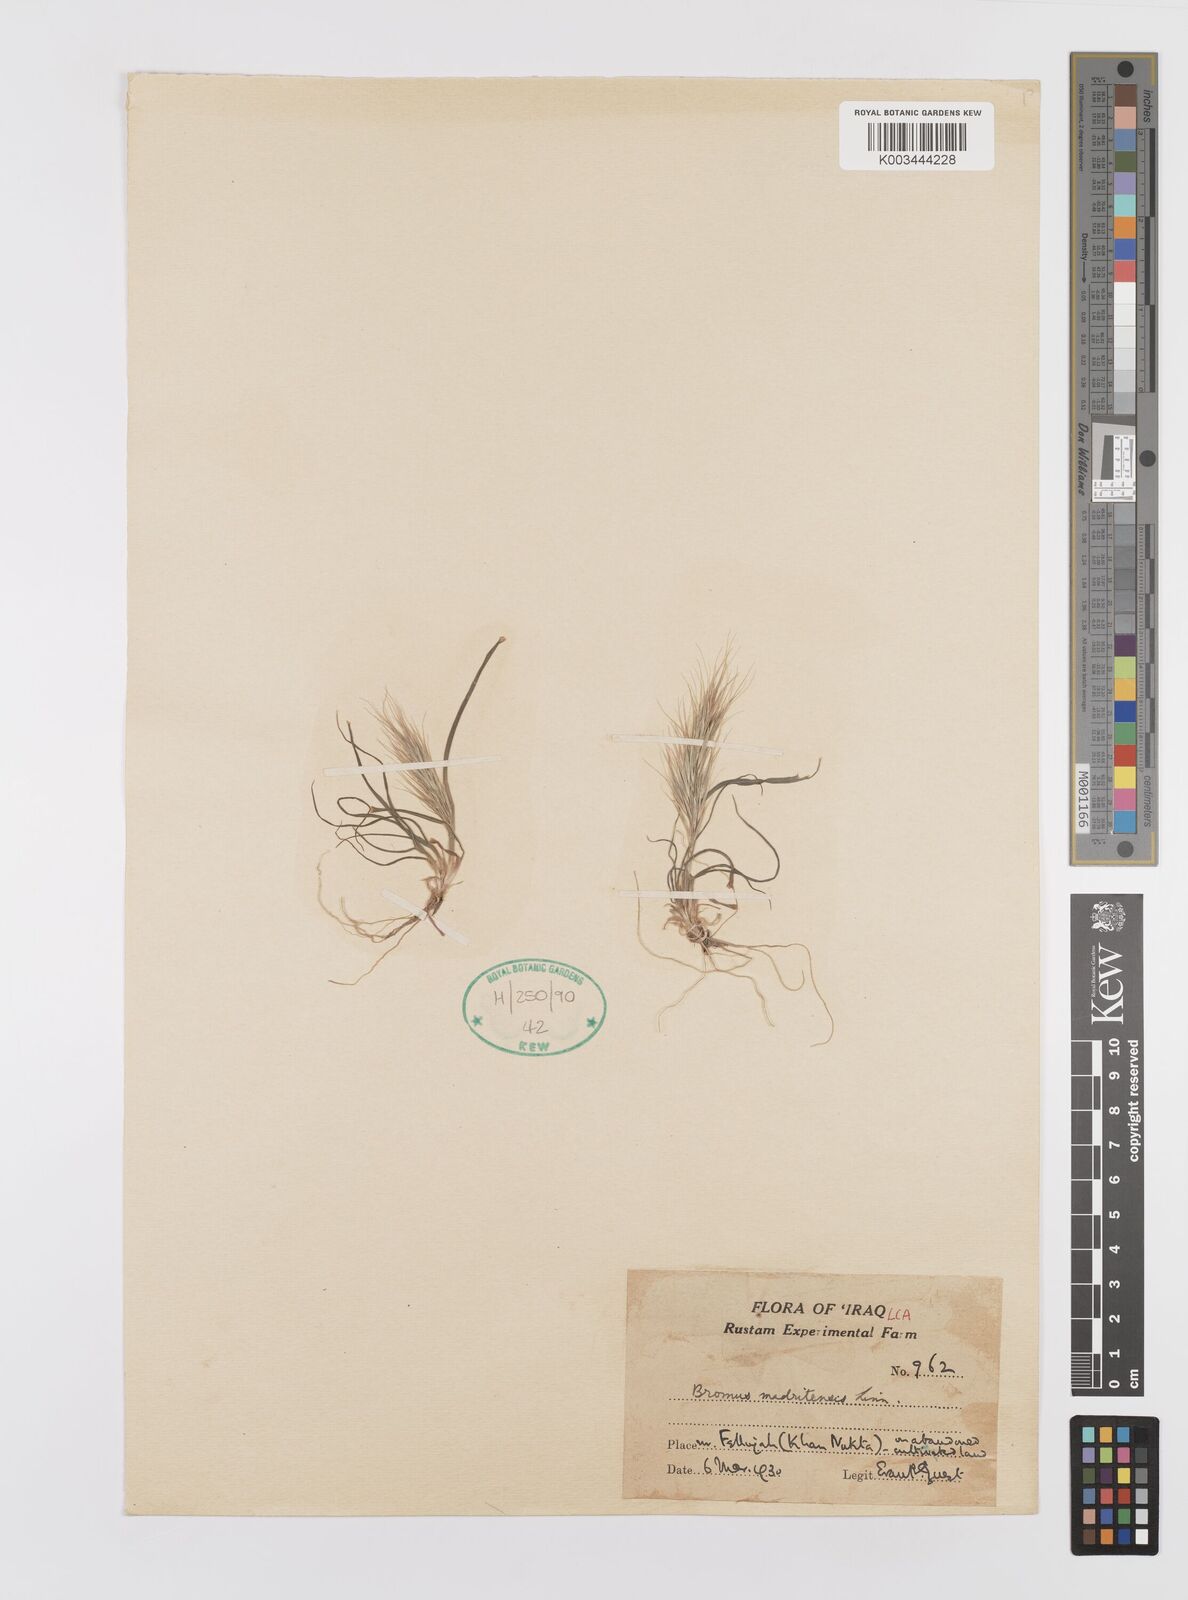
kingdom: Plantae
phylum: Tracheophyta
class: Liliopsida
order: Poales
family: Poaceae
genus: Bromus
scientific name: Bromus madritensis
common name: Compact brome
